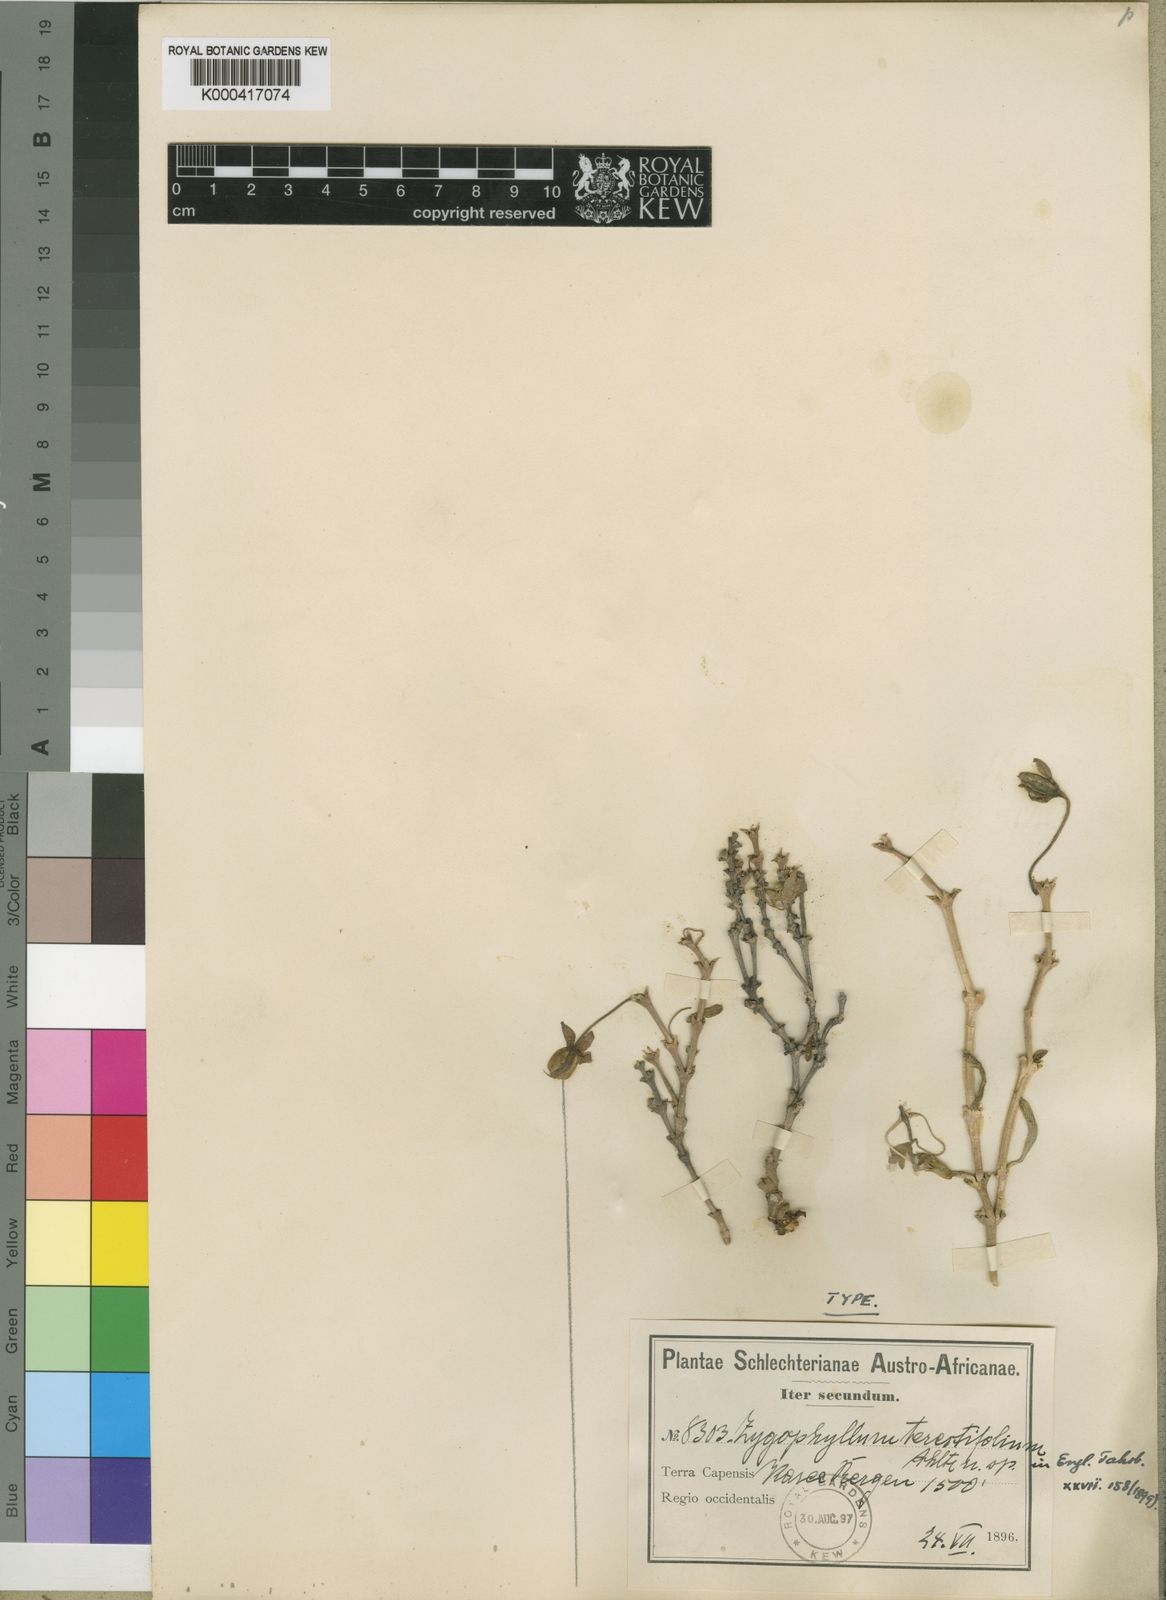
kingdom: Plantae
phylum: Tracheophyta
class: Magnoliopsida
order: Zygophyllales
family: Zygophyllaceae
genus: Roepera
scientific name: Roepera teretifolia
